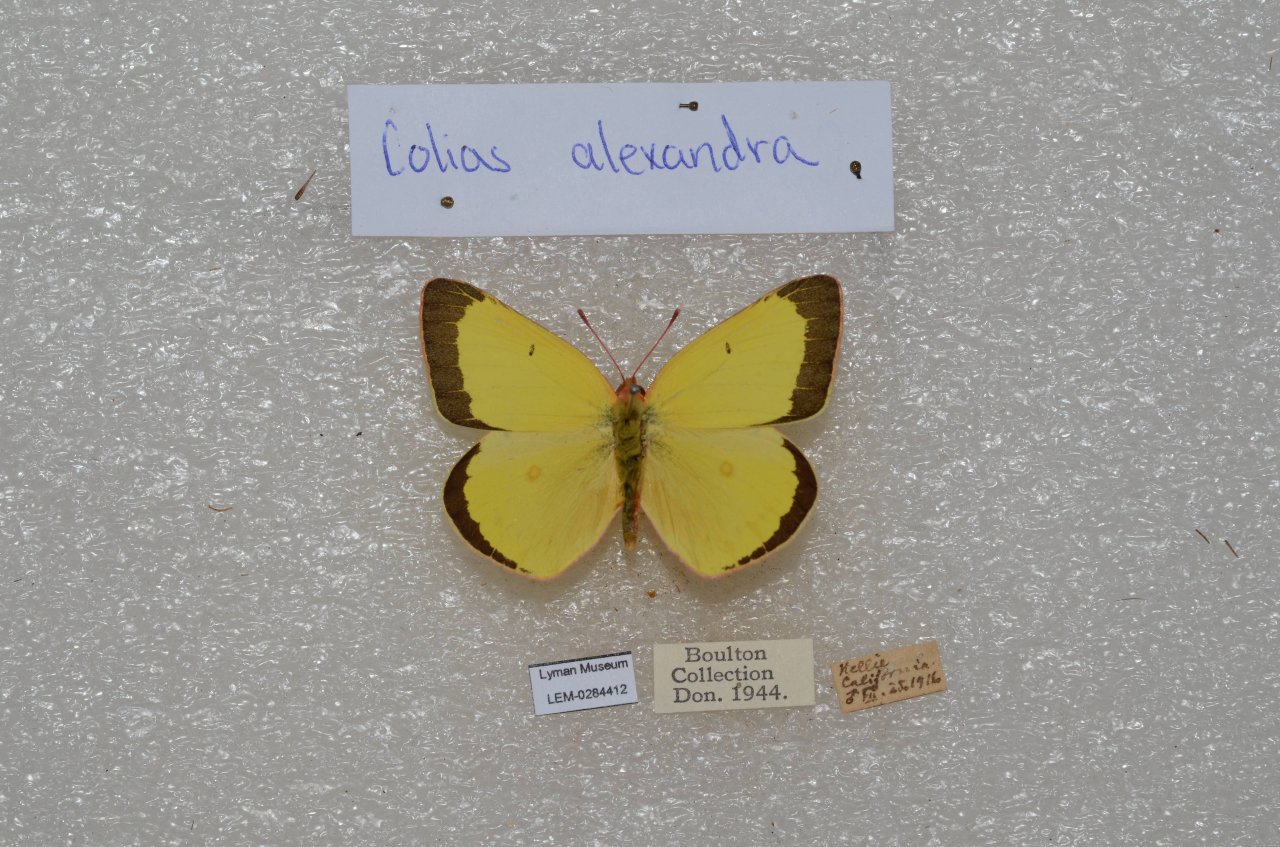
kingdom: Animalia
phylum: Arthropoda
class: Insecta
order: Lepidoptera
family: Pieridae
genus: Colias
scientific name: Colias alexandra
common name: Queen Alexandra's Sulphur
